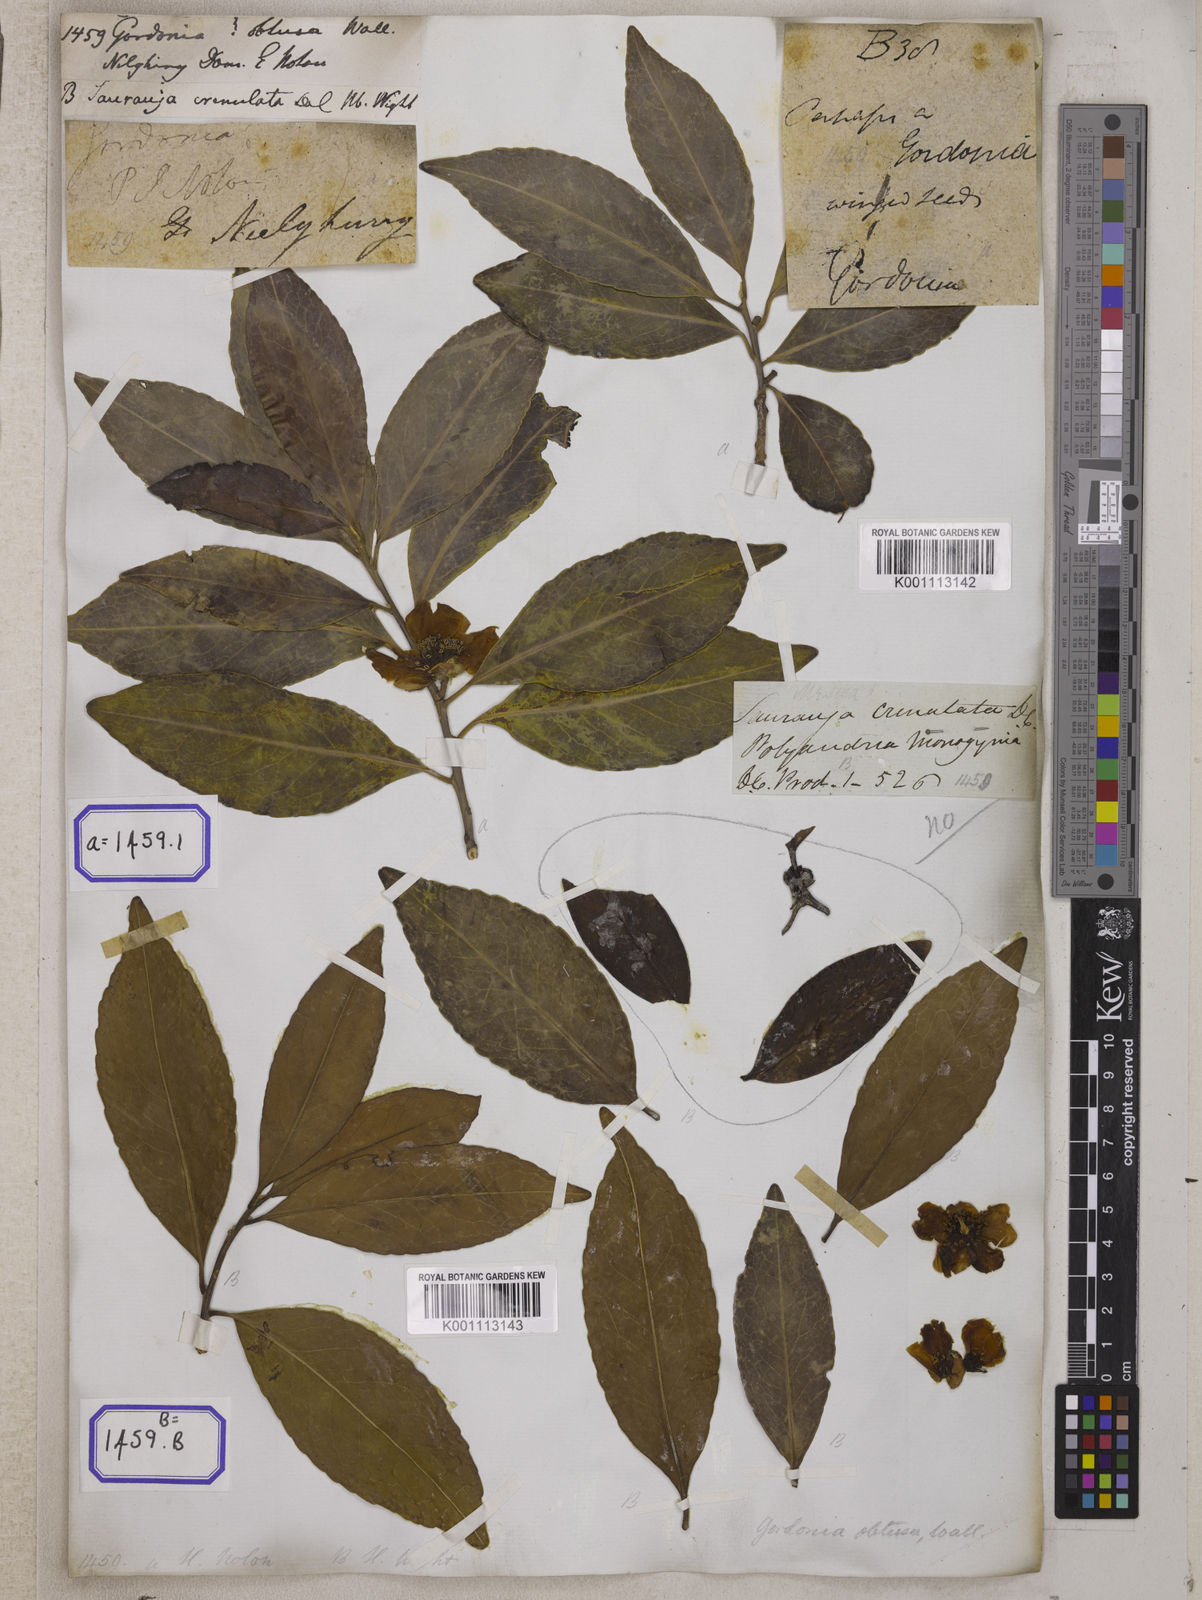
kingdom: Plantae
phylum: Tracheophyta
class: Magnoliopsida
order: Ericales
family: Theaceae
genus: Gordonia
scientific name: Gordonia
